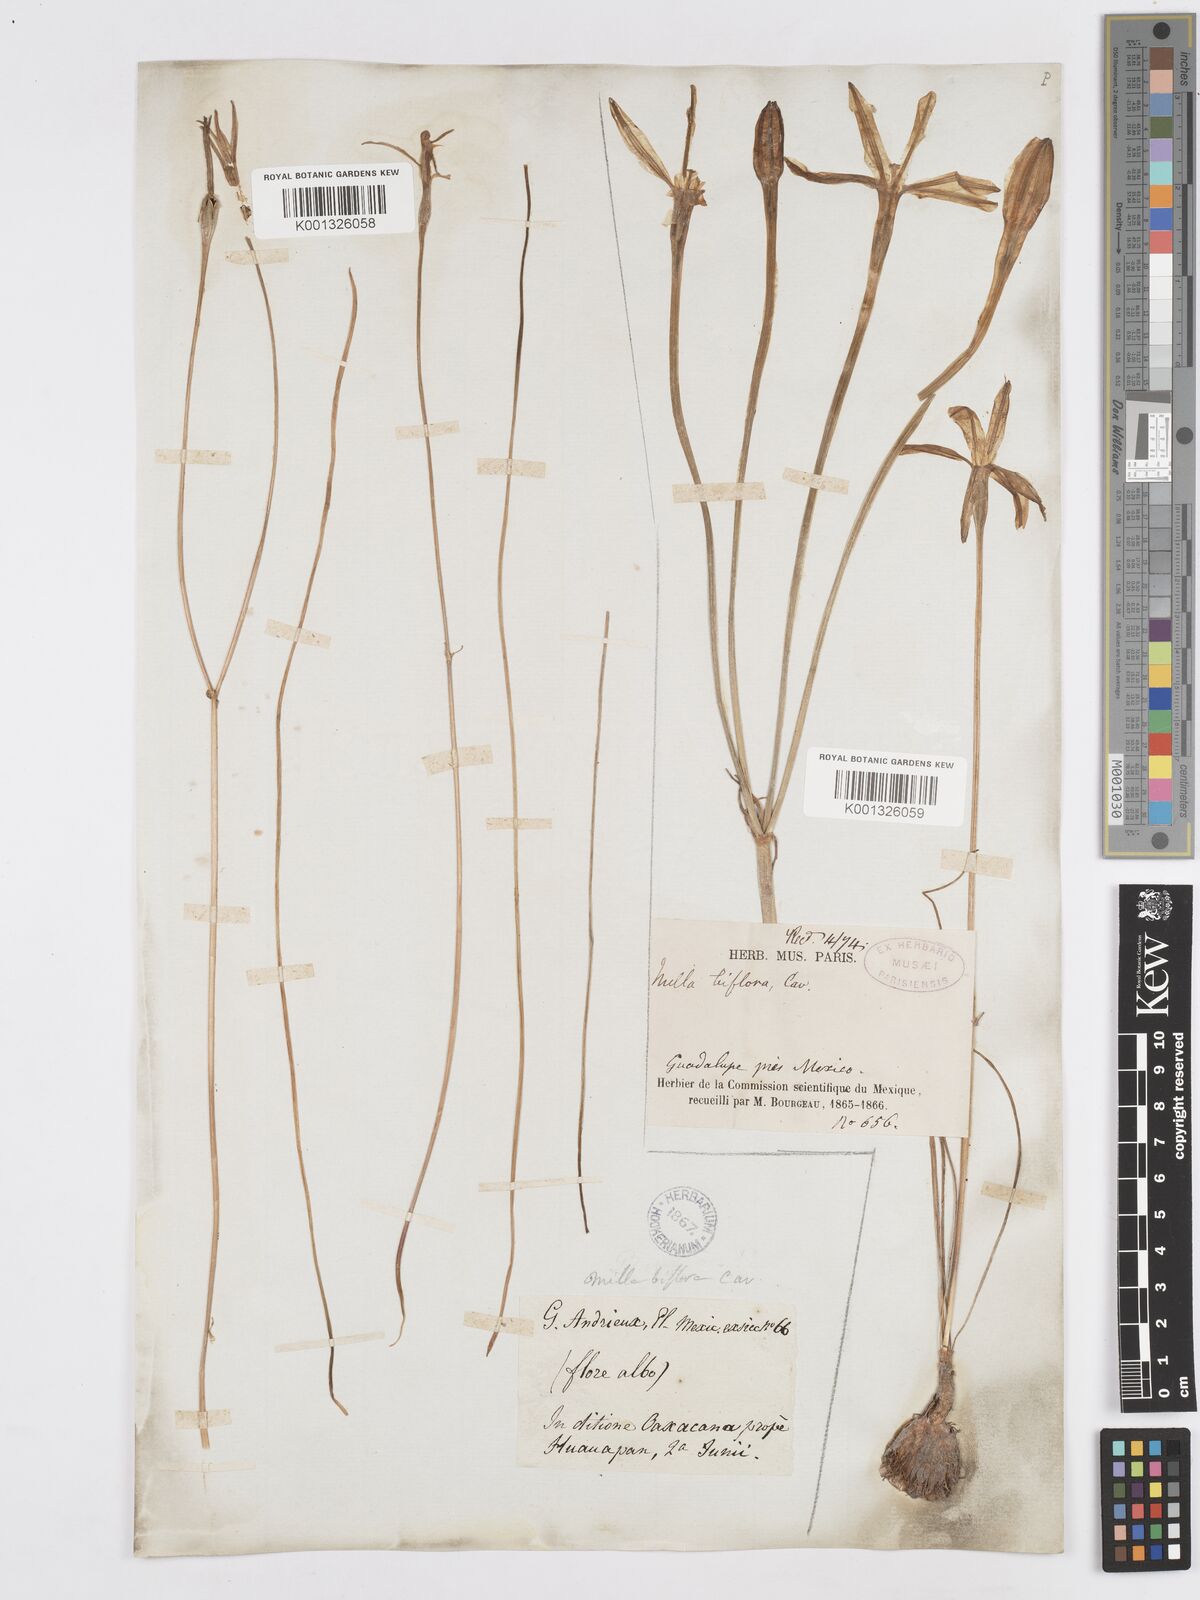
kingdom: Plantae
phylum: Tracheophyta
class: Liliopsida
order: Asparagales
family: Asparagaceae
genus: Milla
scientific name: Milla biflora
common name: Mexican-star
